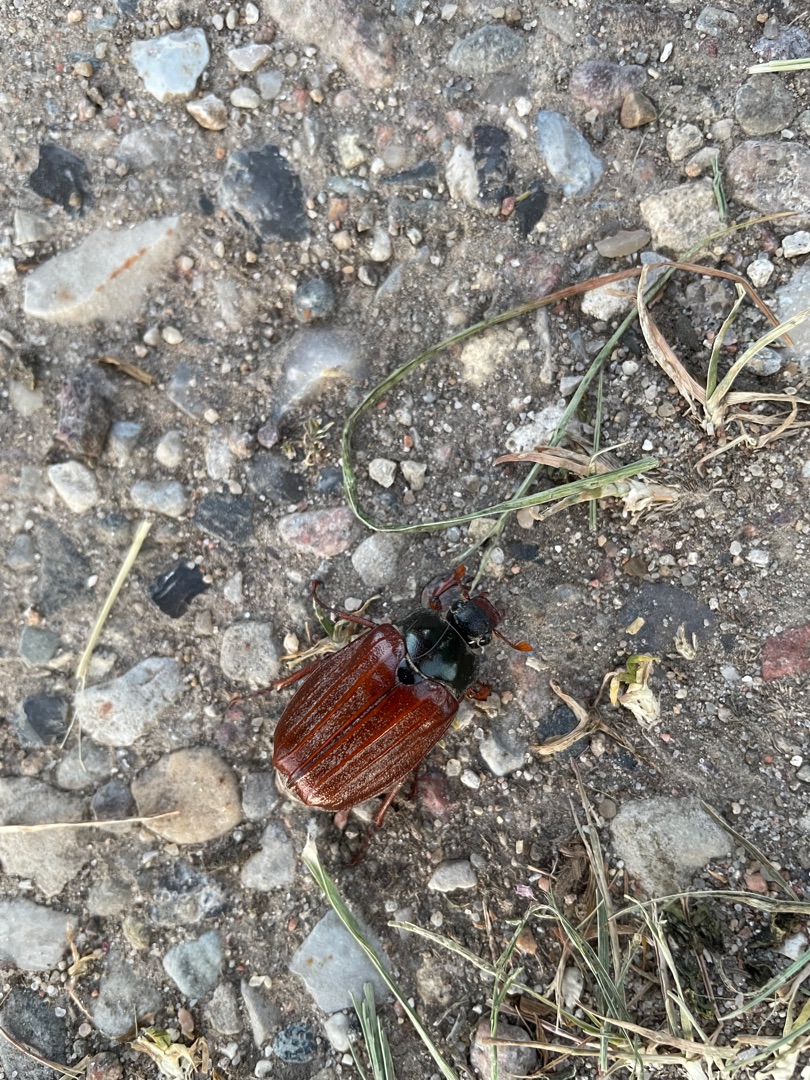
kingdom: Animalia
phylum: Arthropoda
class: Insecta
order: Coleoptera
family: Scarabaeidae
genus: Melolontha
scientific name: Melolontha melolontha
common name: Almindelig oldenborre
